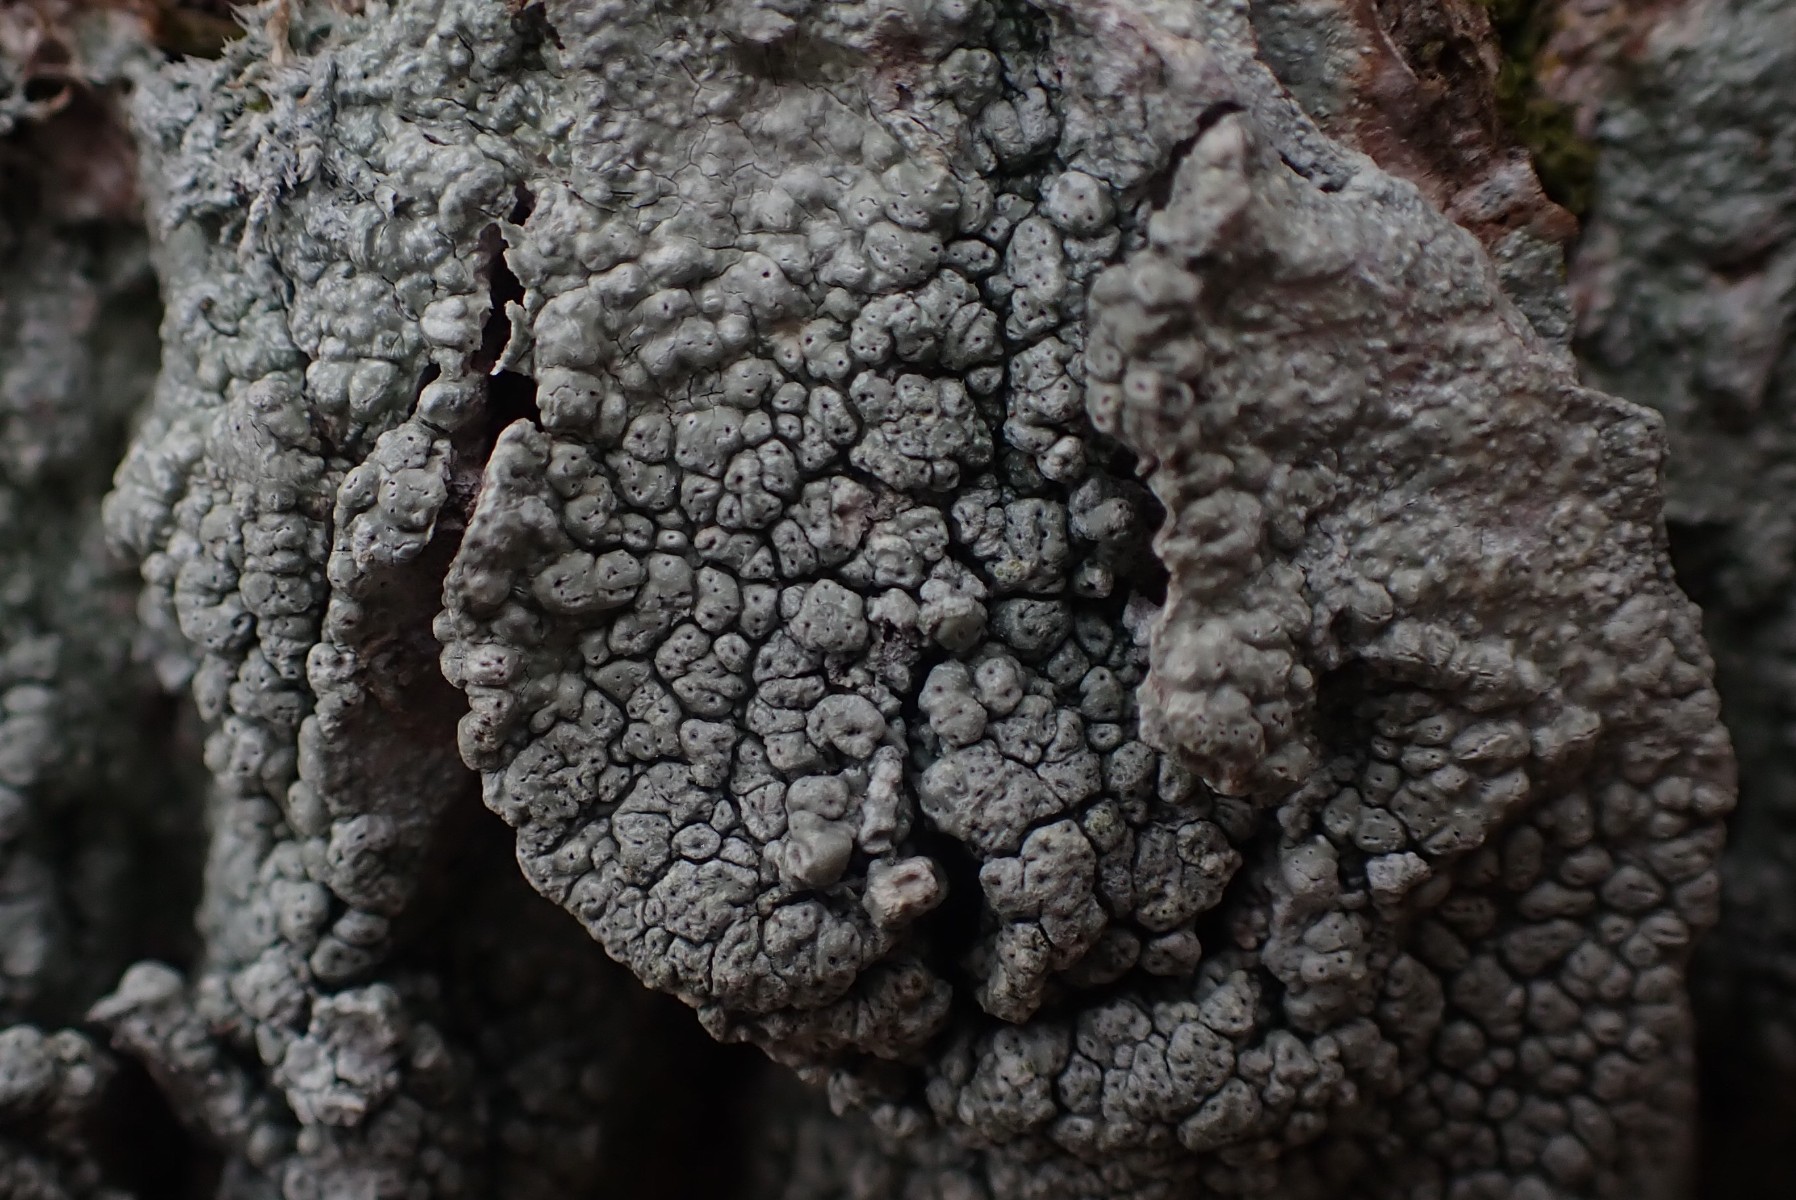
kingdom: Fungi
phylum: Ascomycota
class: Lecanoromycetes
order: Pertusariales
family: Pertusariaceae
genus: Pertusaria
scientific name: Pertusaria pertusa
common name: almindelig prikvortelav
